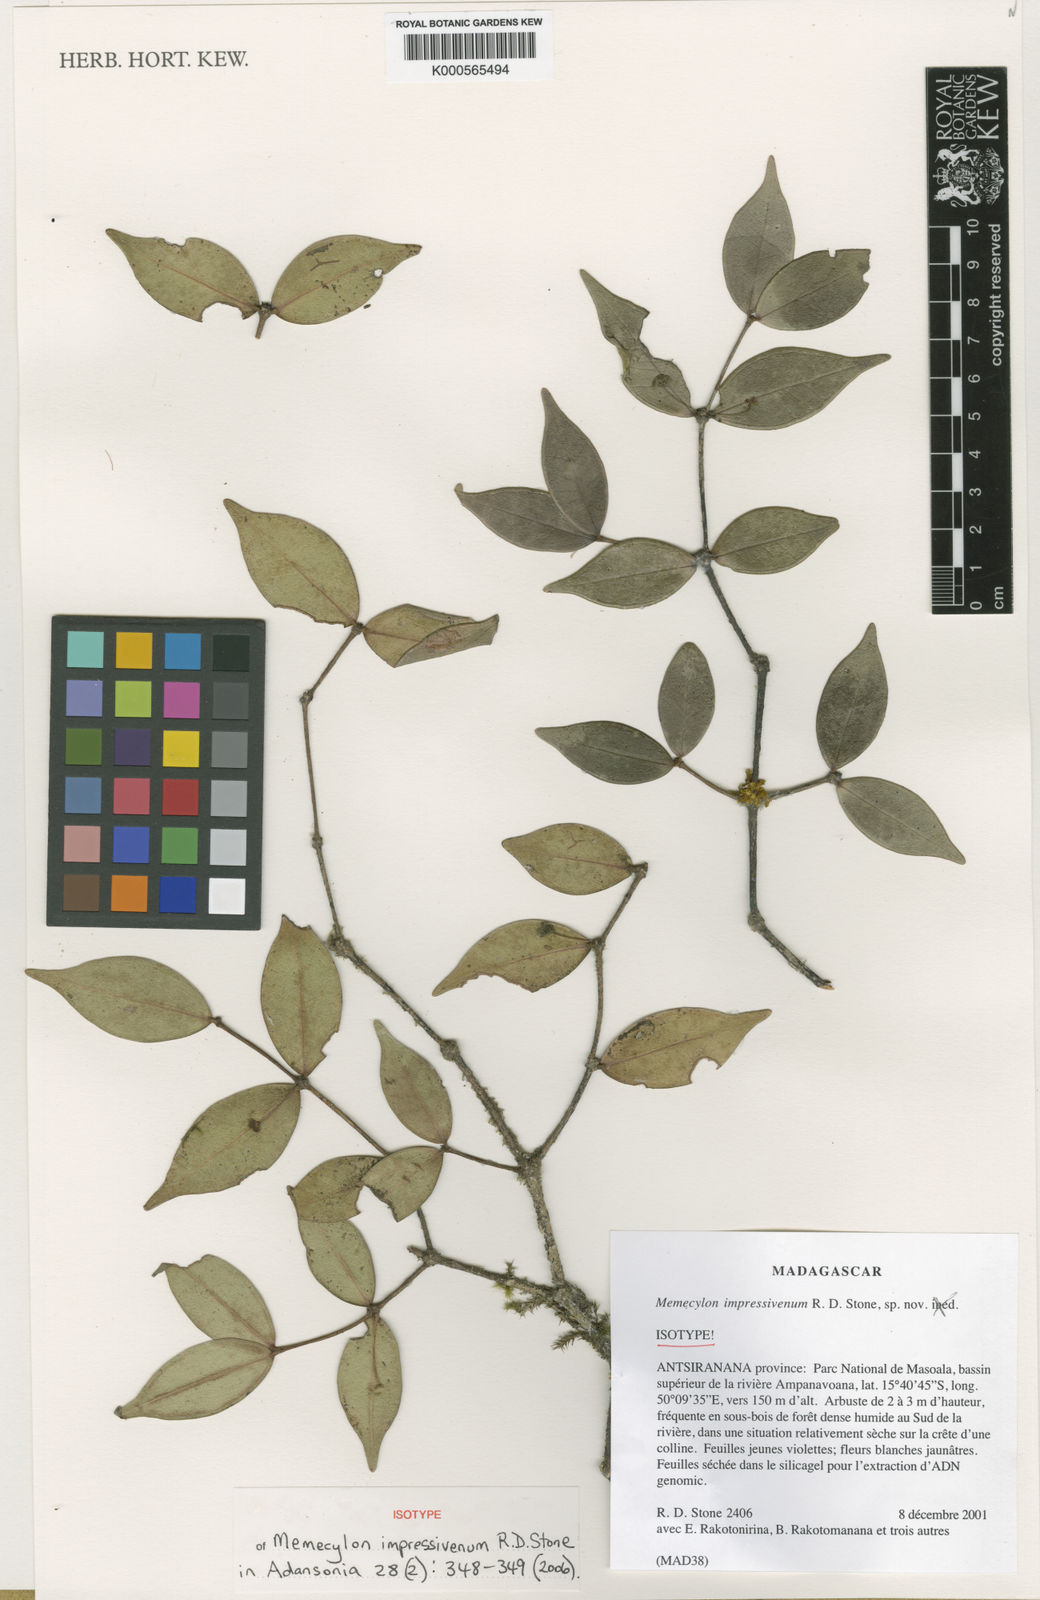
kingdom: Plantae
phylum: Tracheophyta
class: Magnoliopsida
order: Myrtales
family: Melastomataceae
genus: Memecylon
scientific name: Memecylon impressivenum
